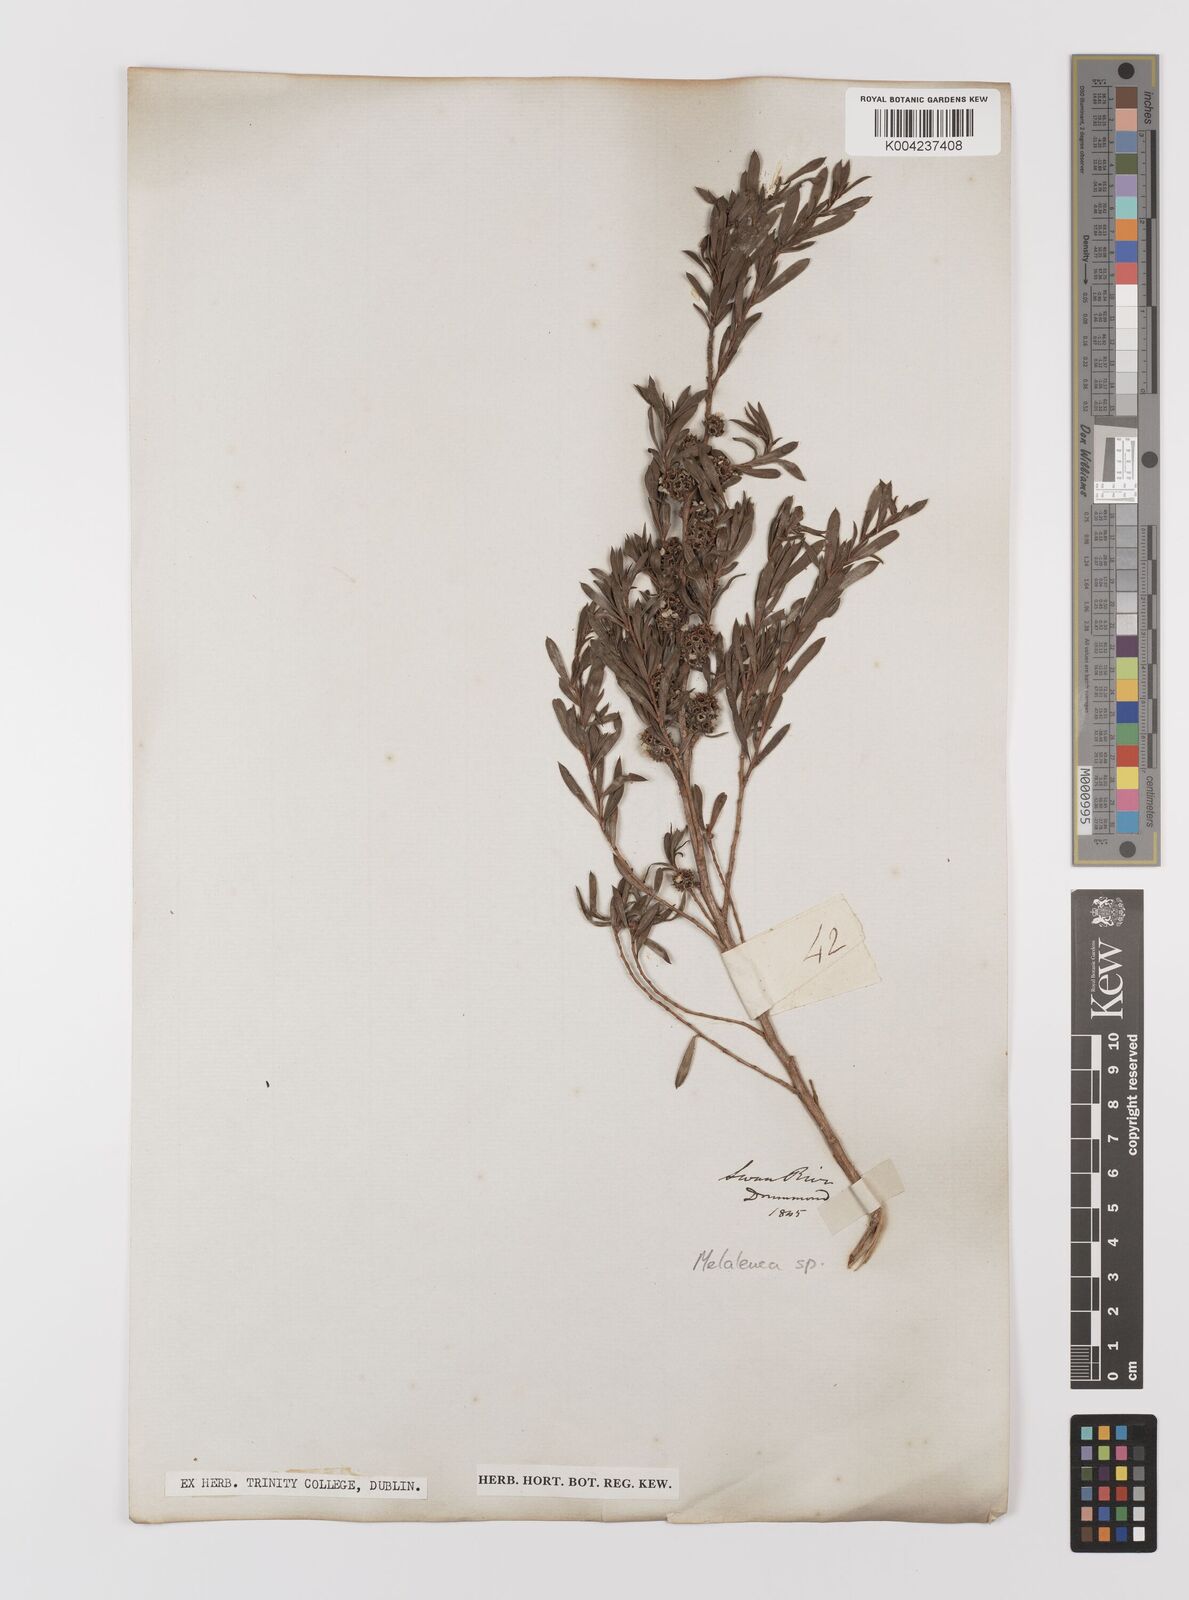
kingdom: Plantae
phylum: Tracheophyta
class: Magnoliopsida
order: Myrtales
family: Myrtaceae
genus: Melaleuca
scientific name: Melaleuca
